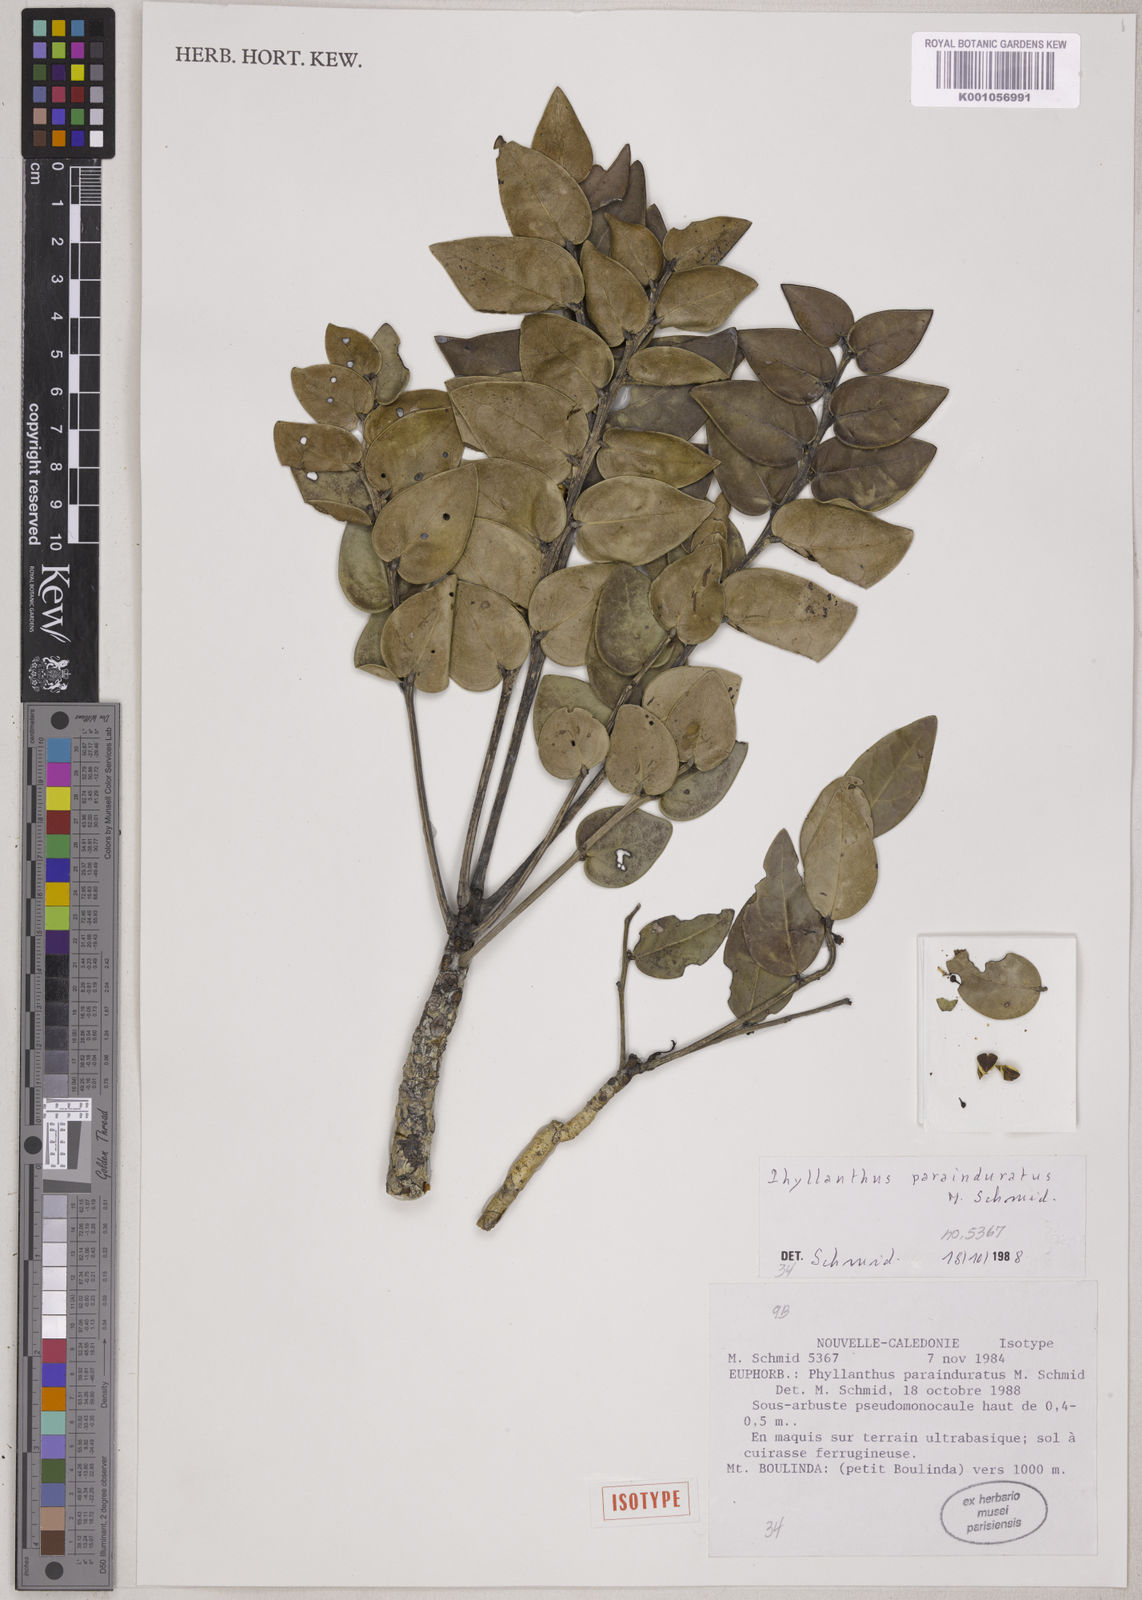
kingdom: Plantae
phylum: Tracheophyta
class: Magnoliopsida
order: Malpighiales
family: Phyllanthaceae
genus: Phyllanthus
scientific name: Phyllanthus parainduratus
